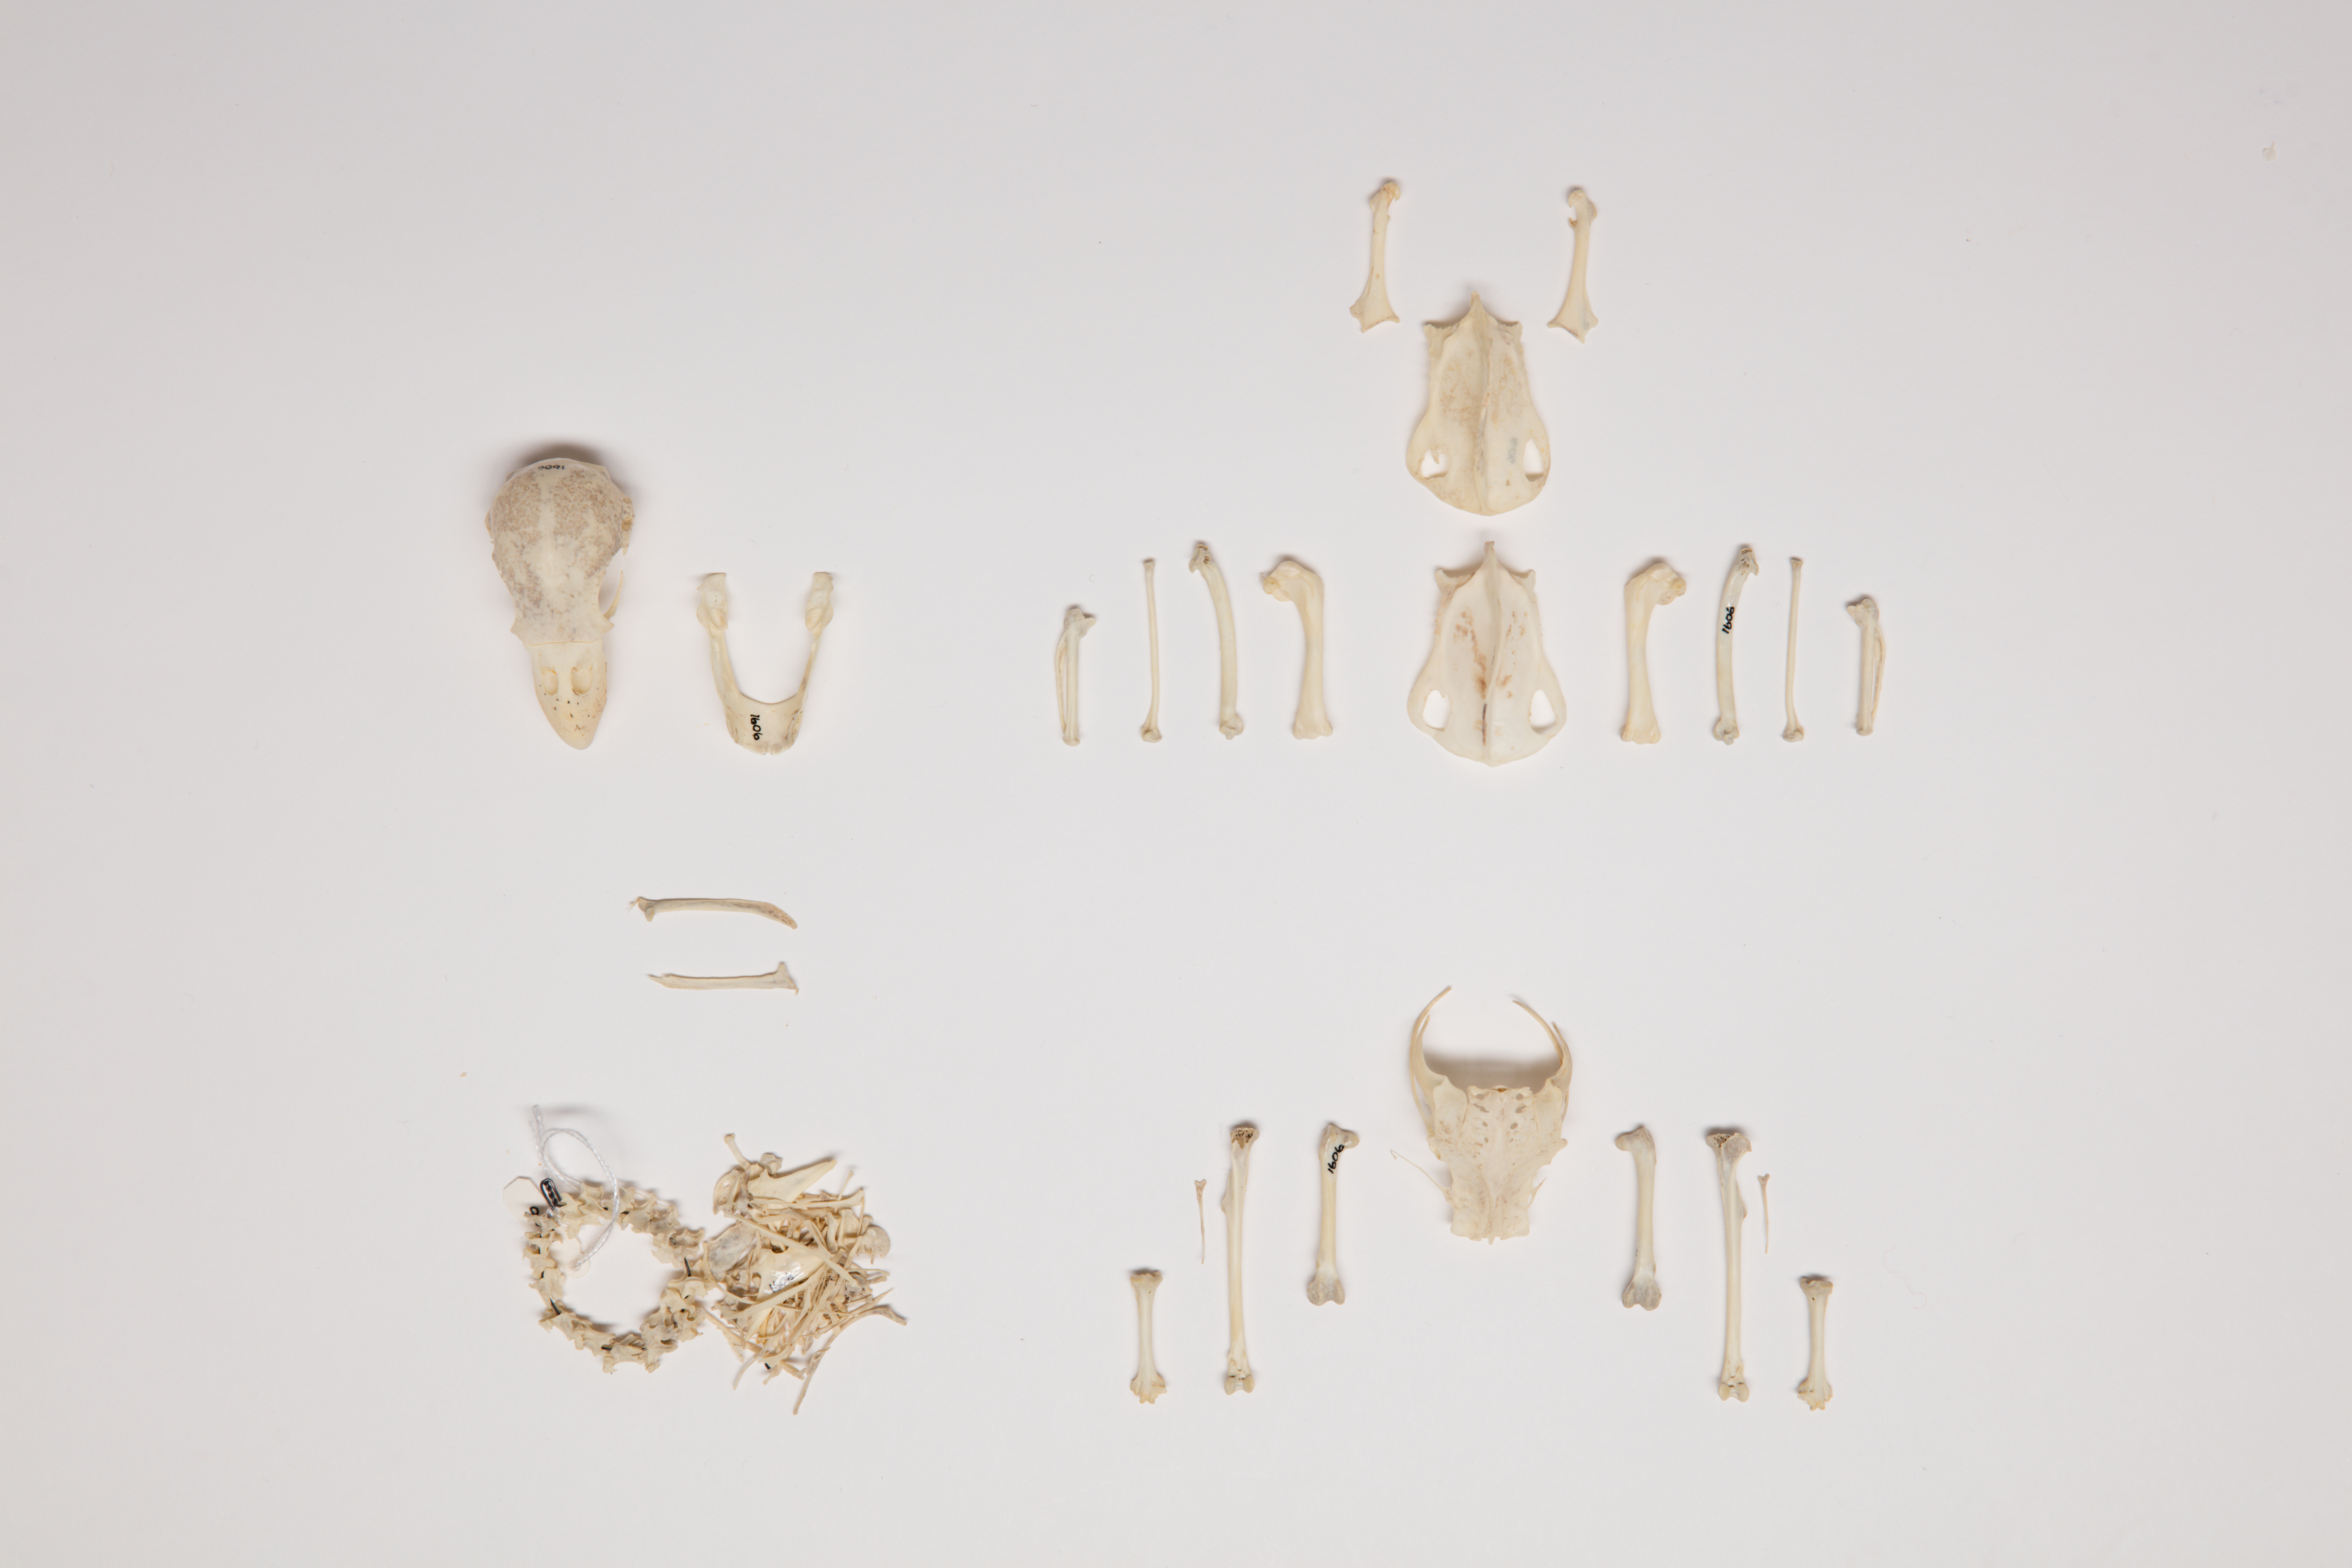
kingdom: Animalia
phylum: Chordata
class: Aves
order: Psittaciformes
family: Psittacidae
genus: Cyanoramphus
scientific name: Cyanoramphus unicolor
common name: Antipodes parakeet
